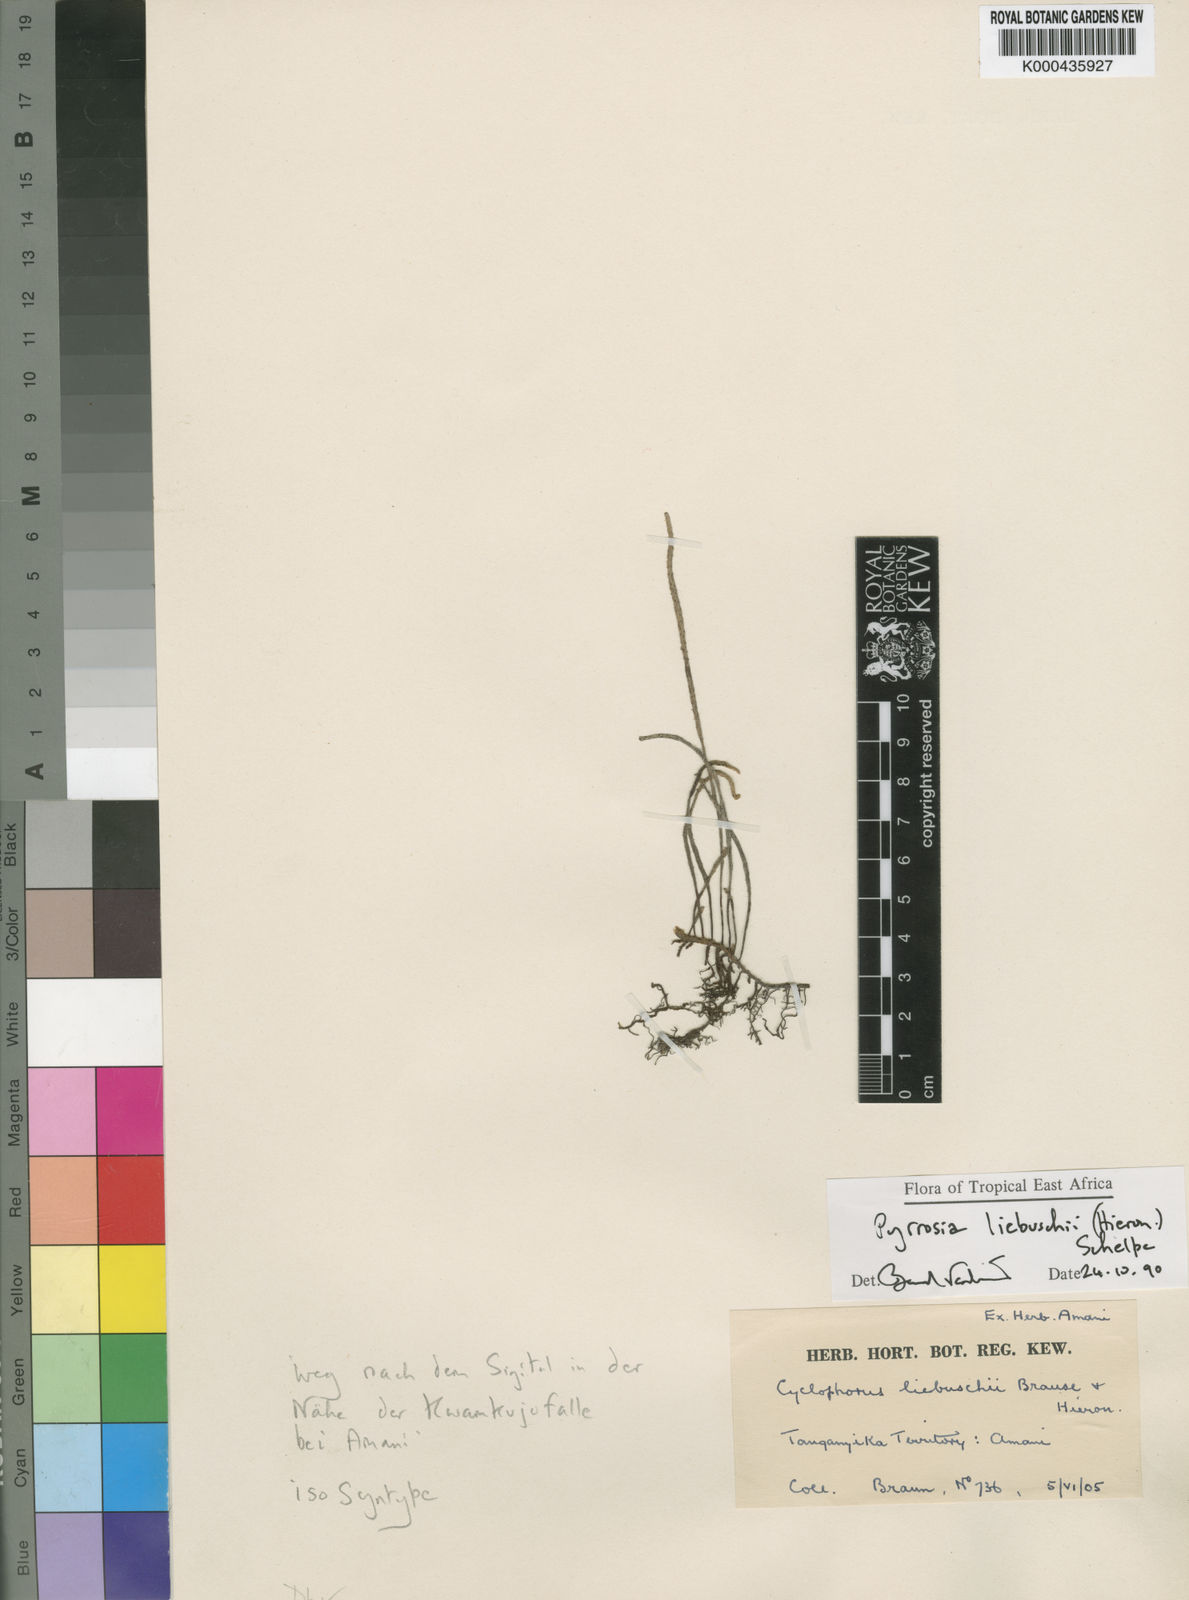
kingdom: Plantae
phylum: Tracheophyta
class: Polypodiopsida
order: Polypodiales
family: Polypodiaceae
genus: Hovenkampia
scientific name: Hovenkampia liebuschii
